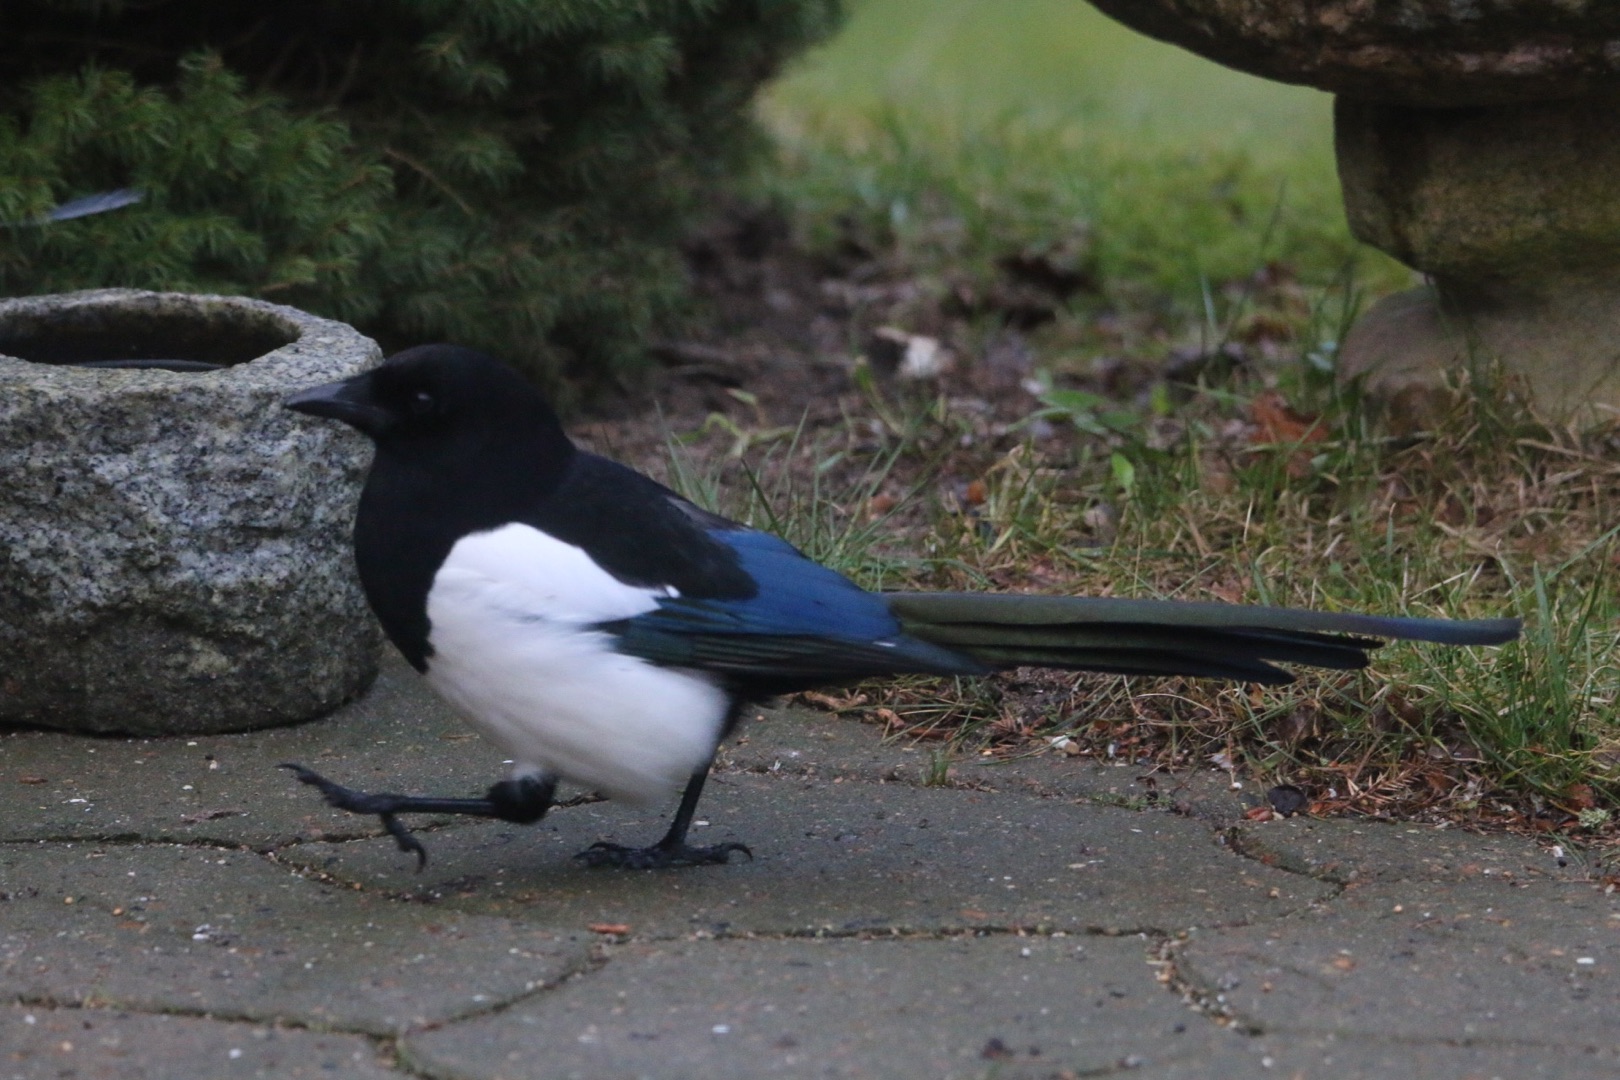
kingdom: Animalia
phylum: Chordata
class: Aves
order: Passeriformes
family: Corvidae
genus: Pica
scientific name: Pica pica
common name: Husskade
